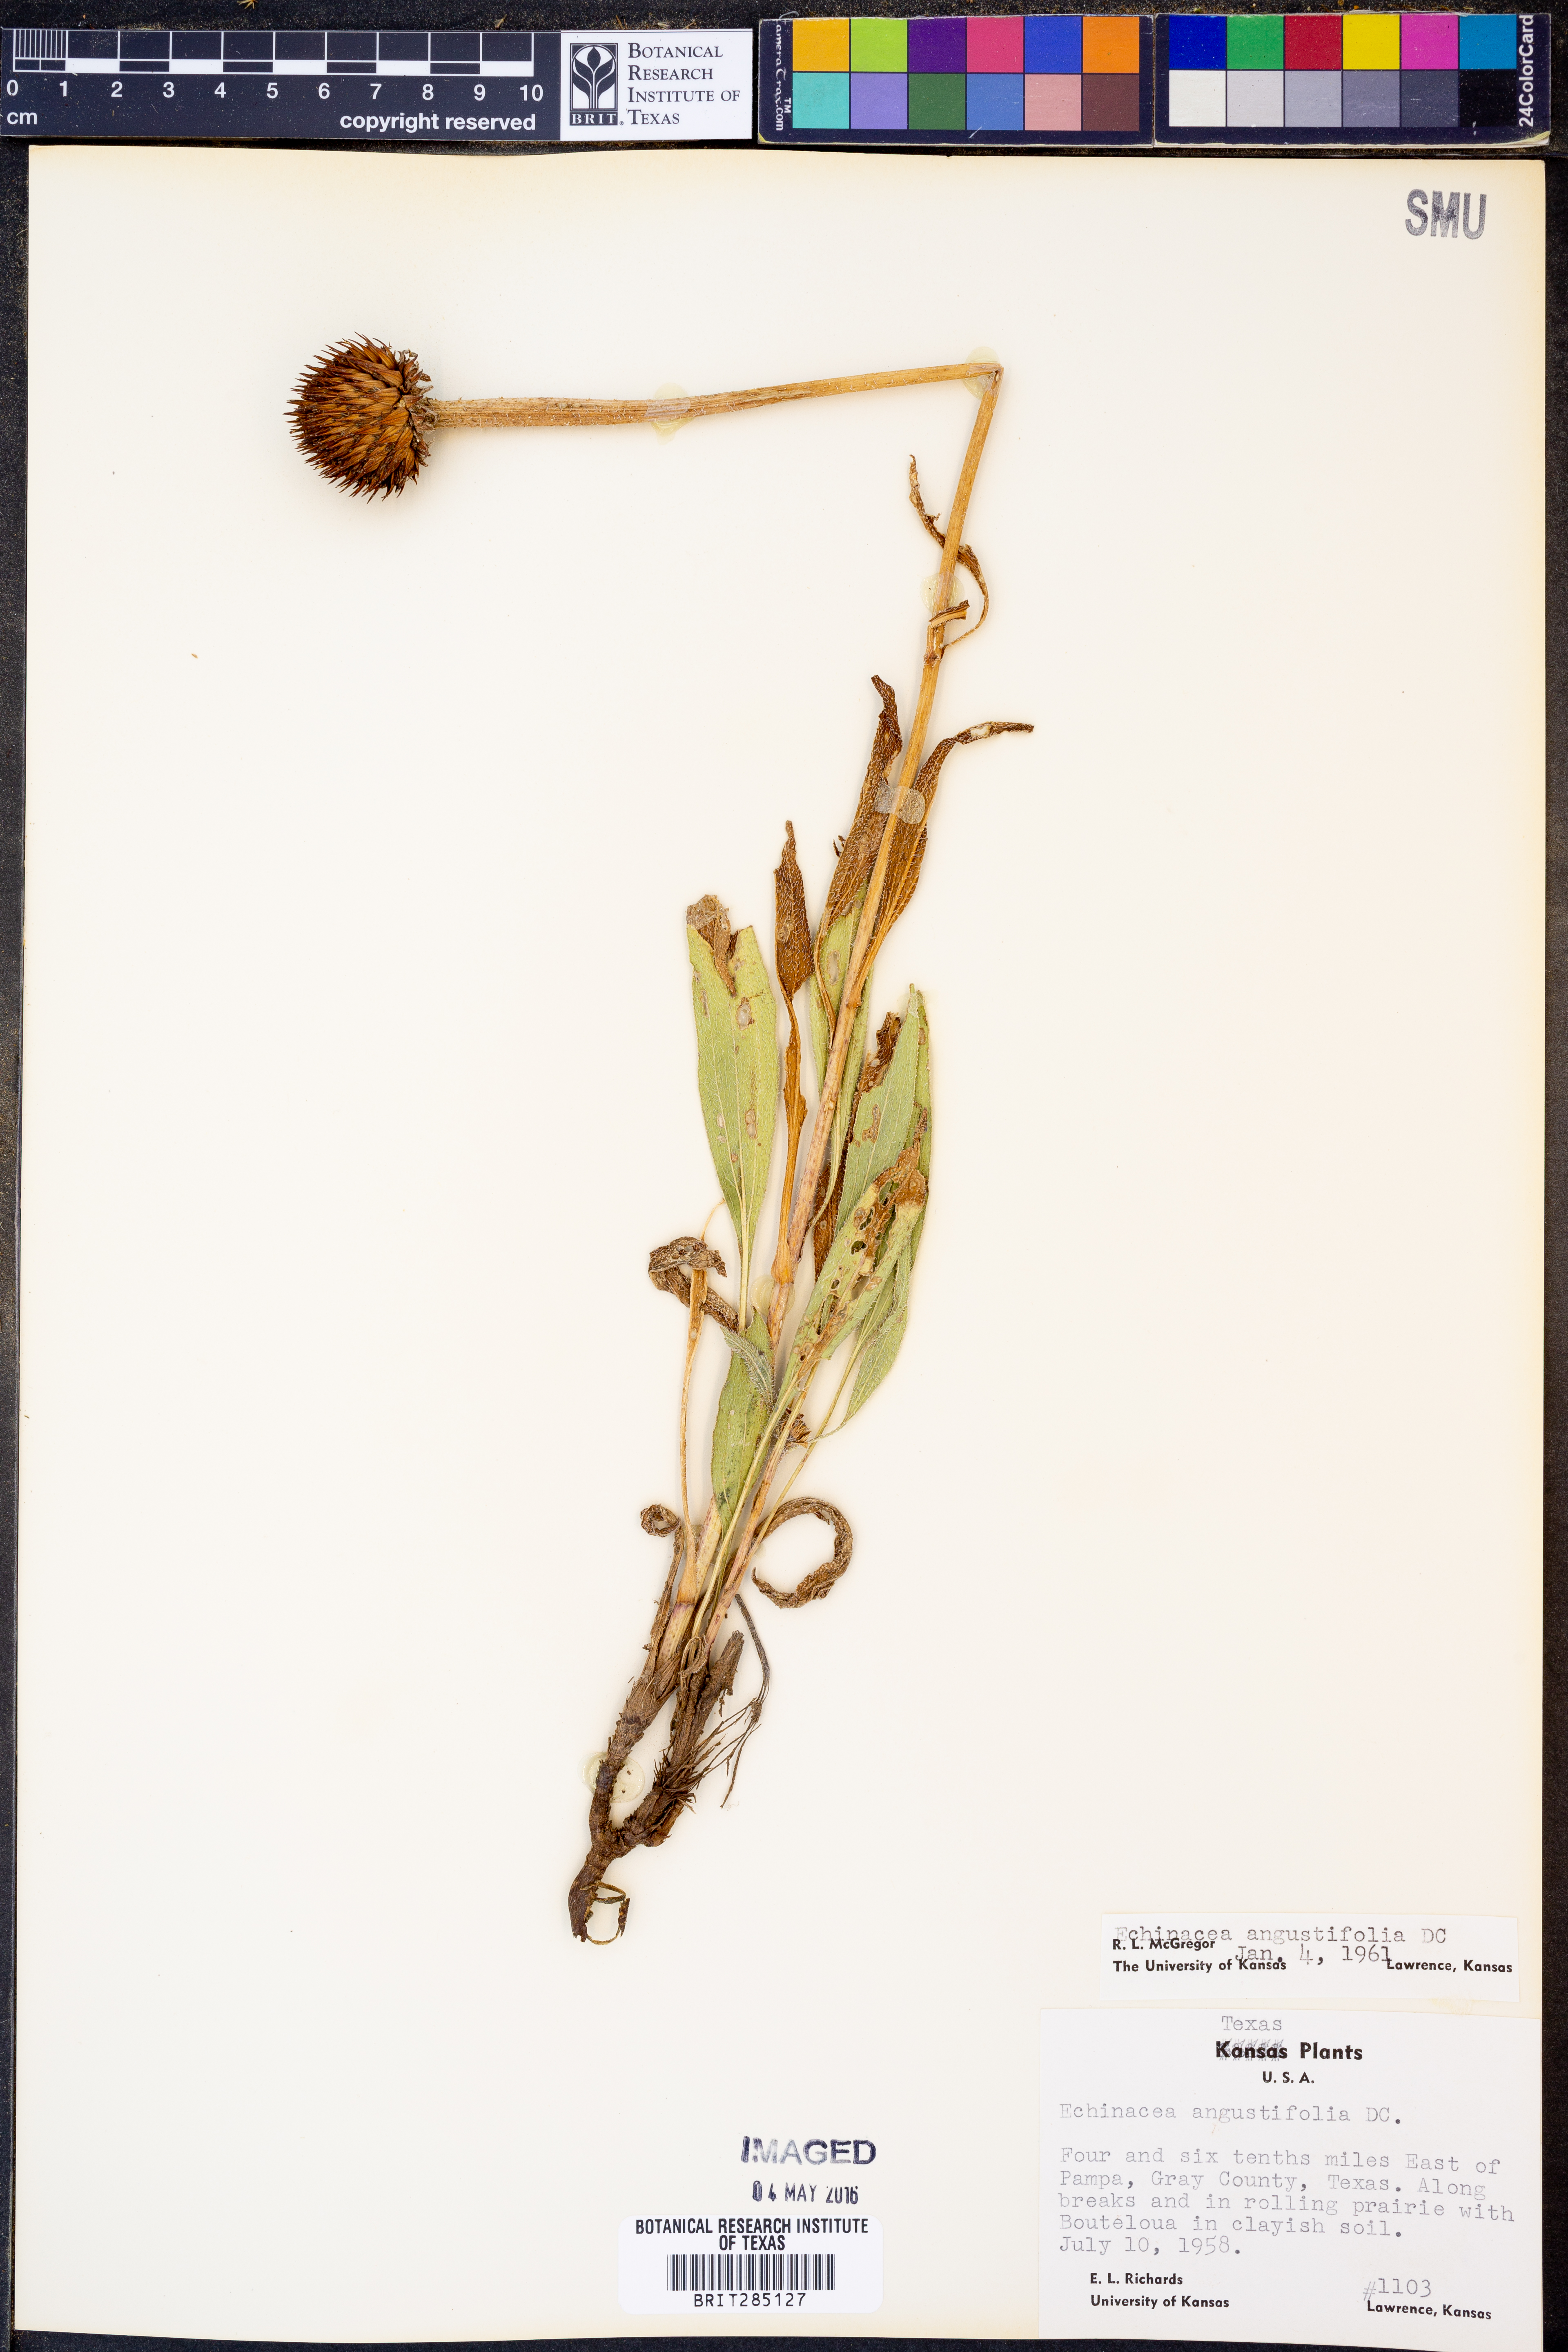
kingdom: Plantae
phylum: Tracheophyta
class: Magnoliopsida
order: Asterales
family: Asteraceae
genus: Echinacea
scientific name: Echinacea angustifolia
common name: Black-sampson echinacea
